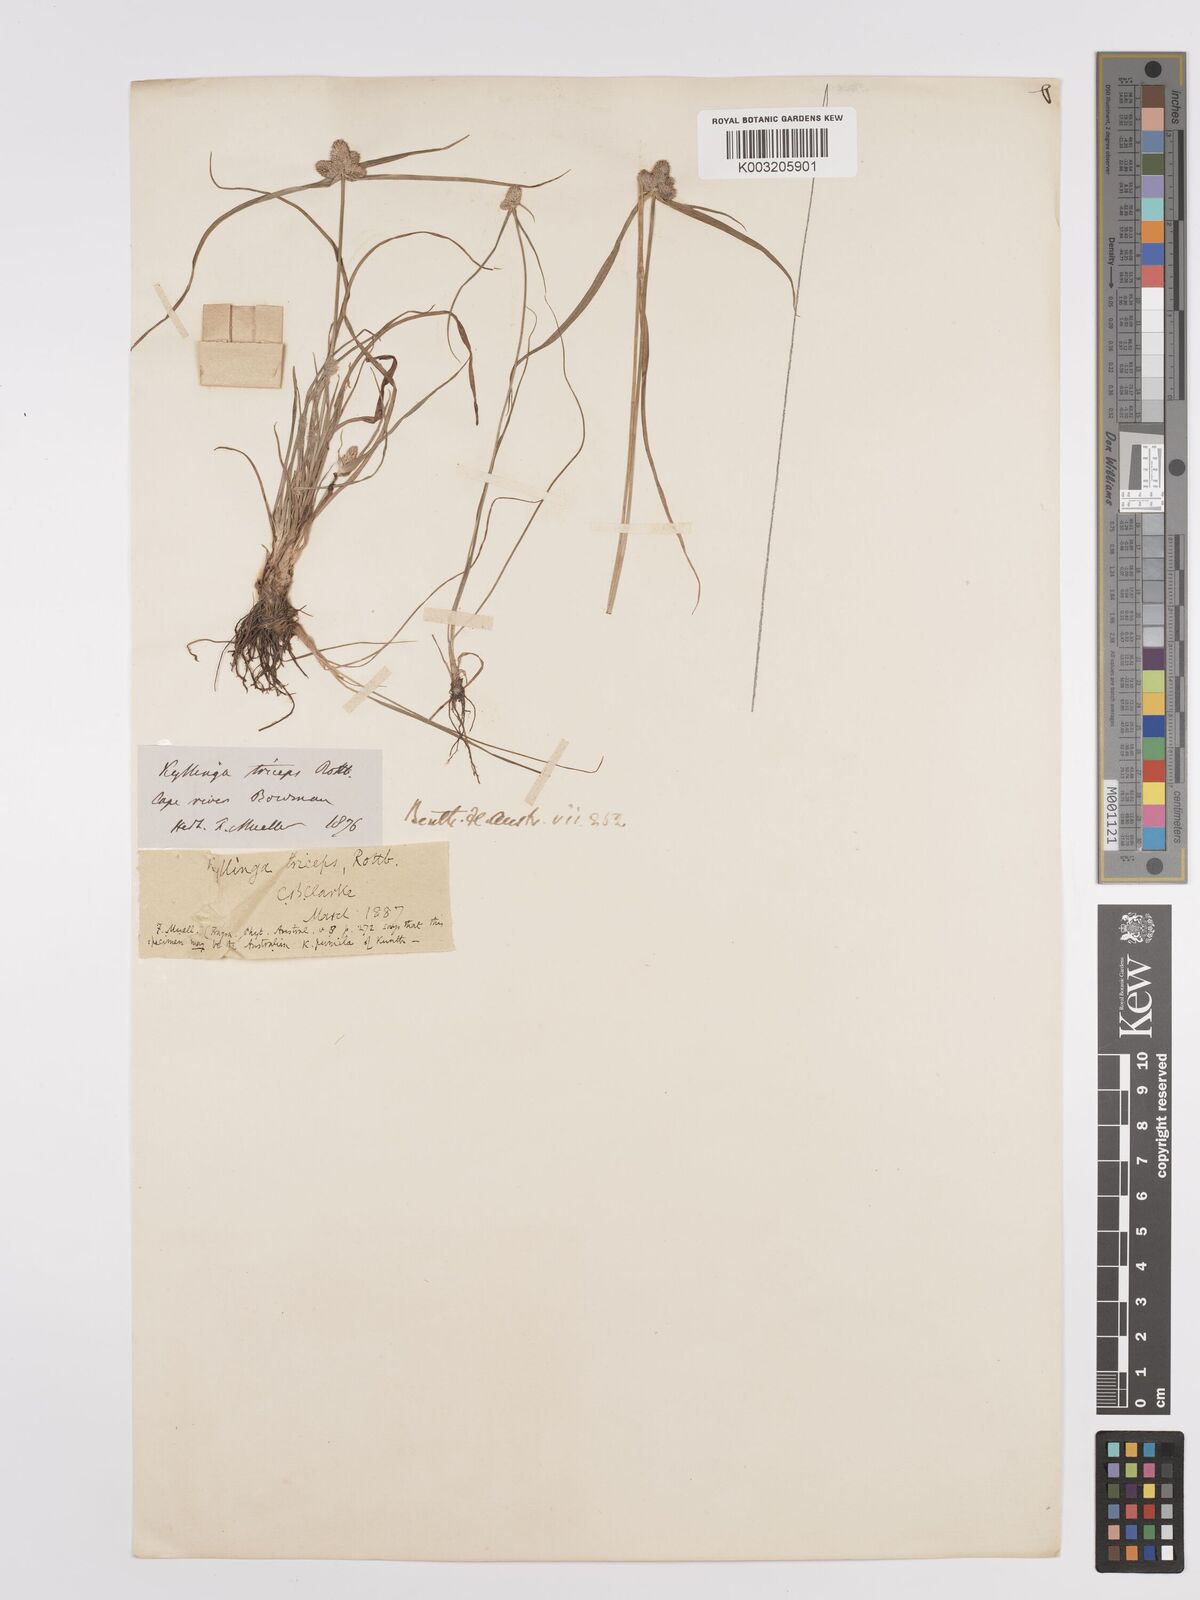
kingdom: Plantae
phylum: Tracheophyta
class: Liliopsida
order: Poales
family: Cyperaceae
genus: Cyperus
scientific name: Cyperus dubius
